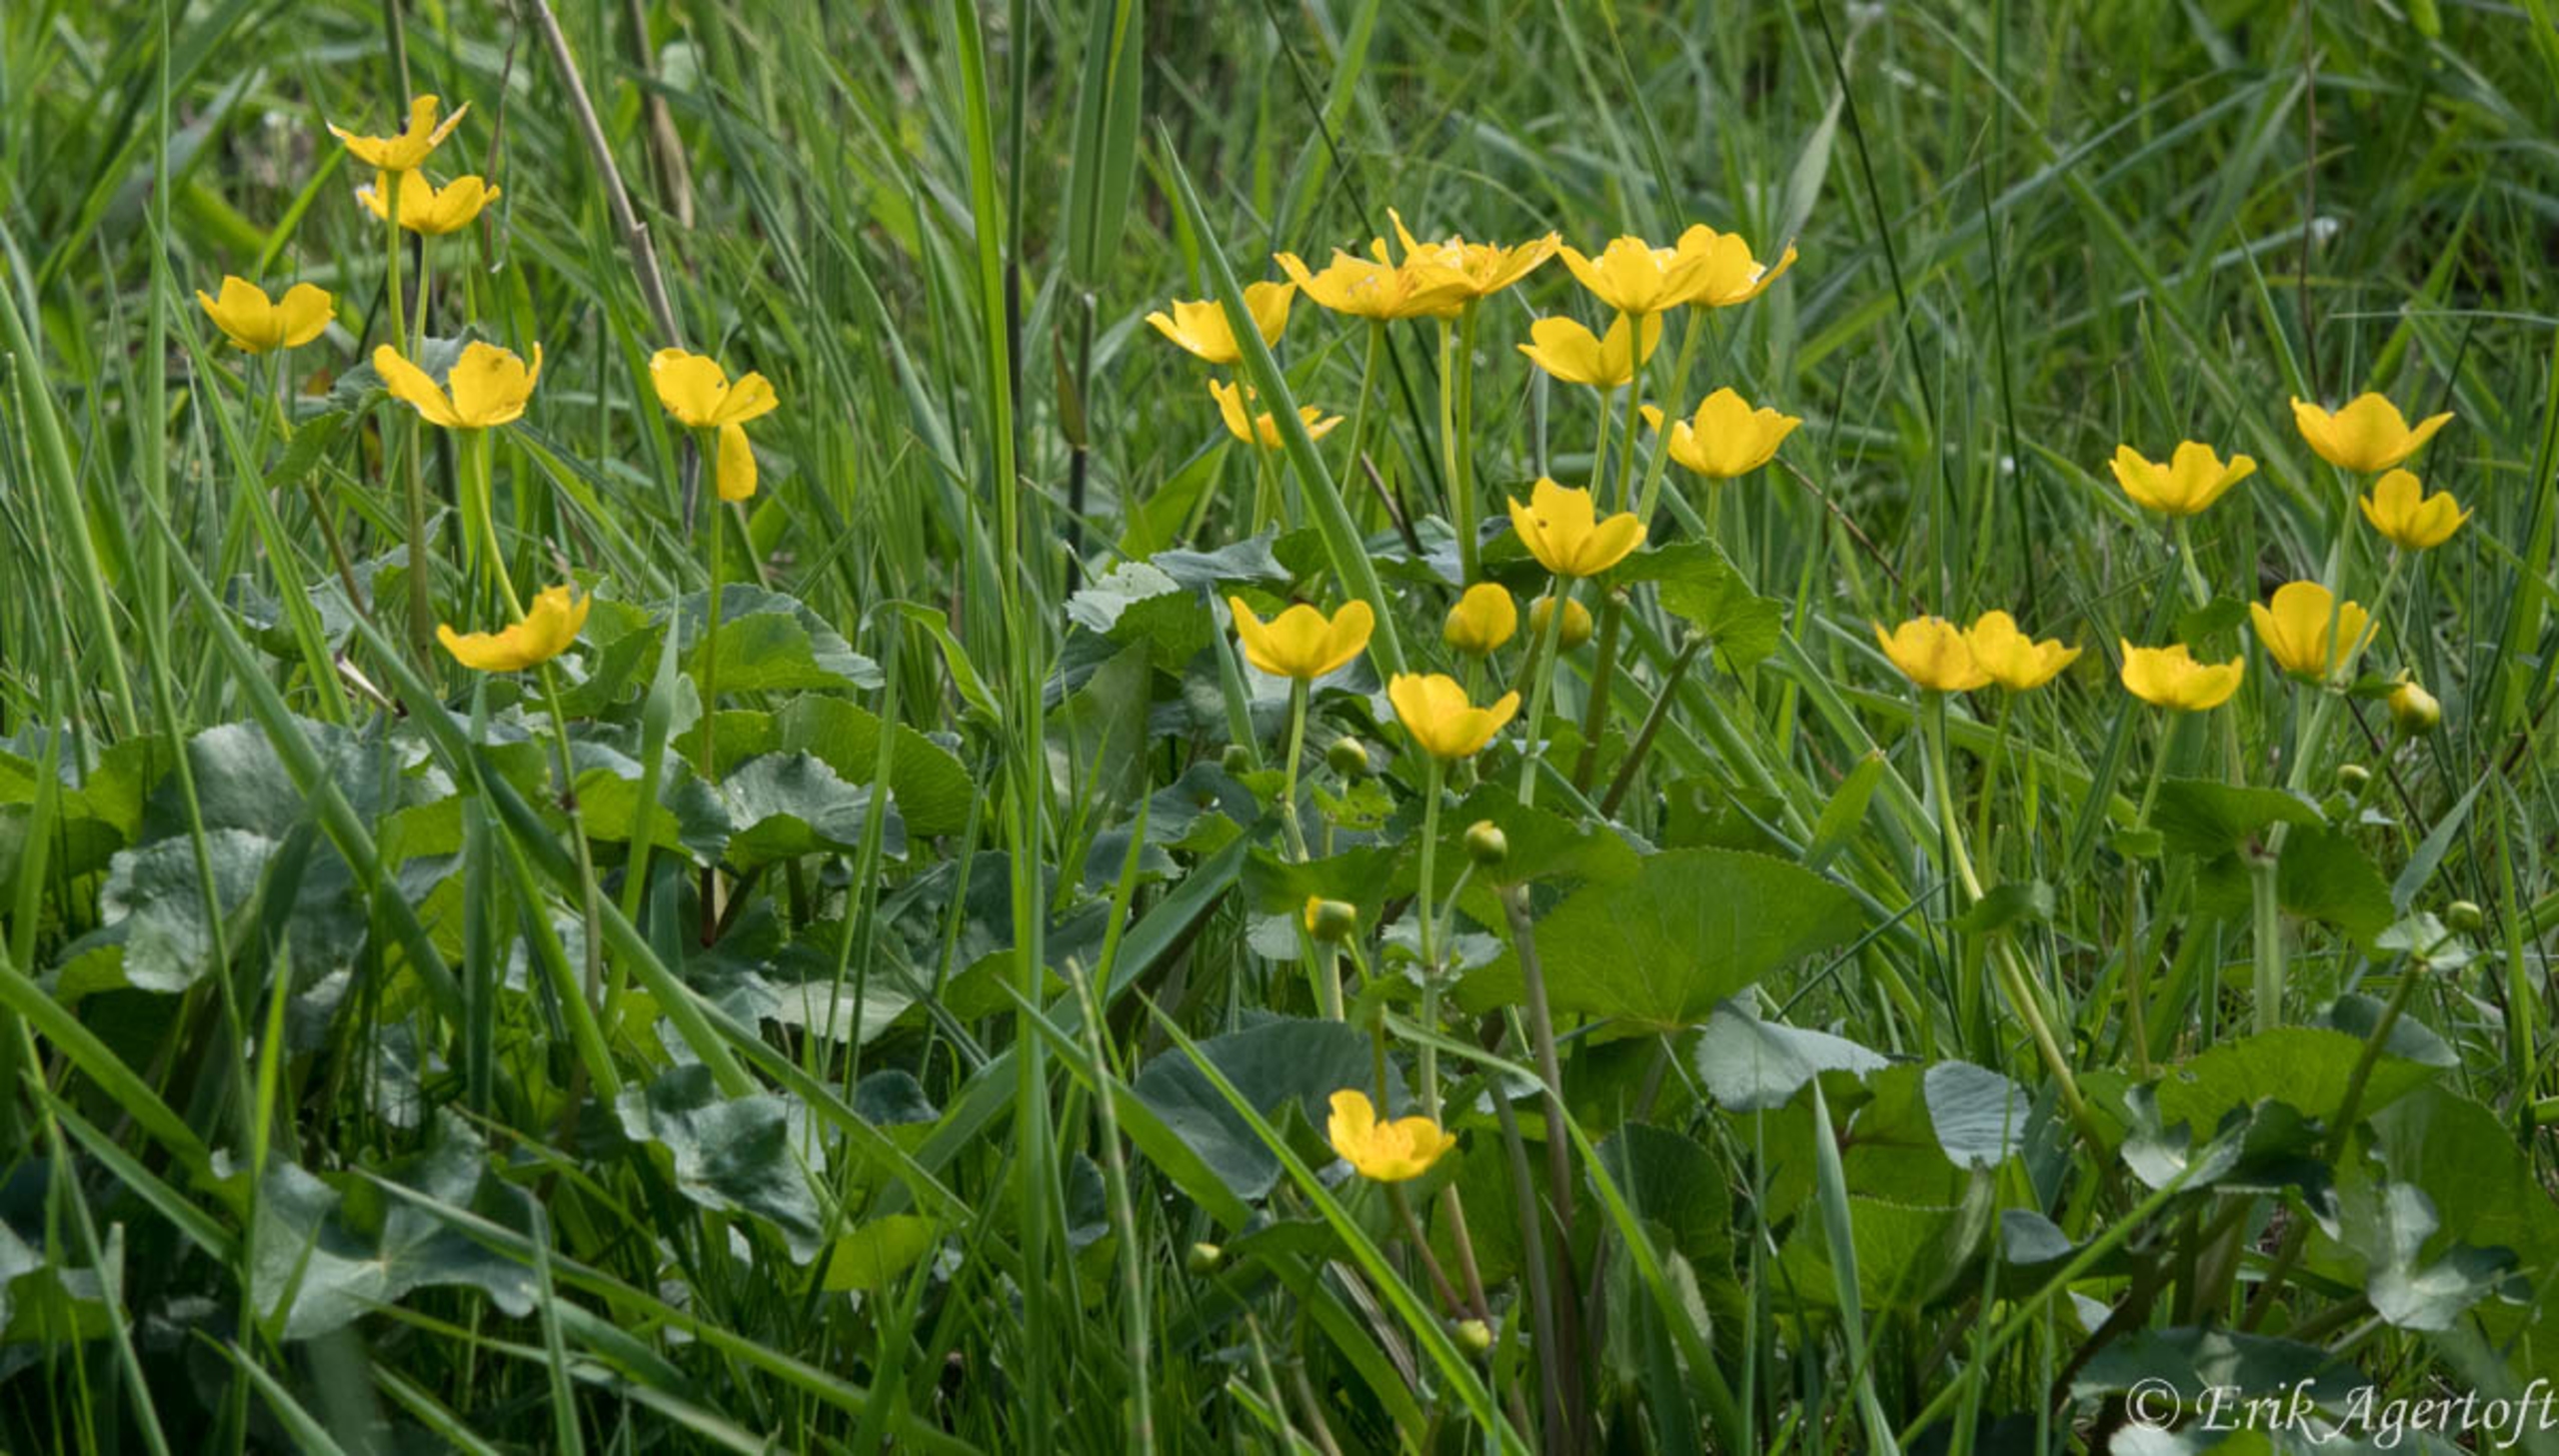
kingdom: Plantae
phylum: Tracheophyta
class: Magnoliopsida
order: Ranunculales
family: Ranunculaceae
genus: Caltha
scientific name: Caltha palustris
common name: Eng-kabbeleje
